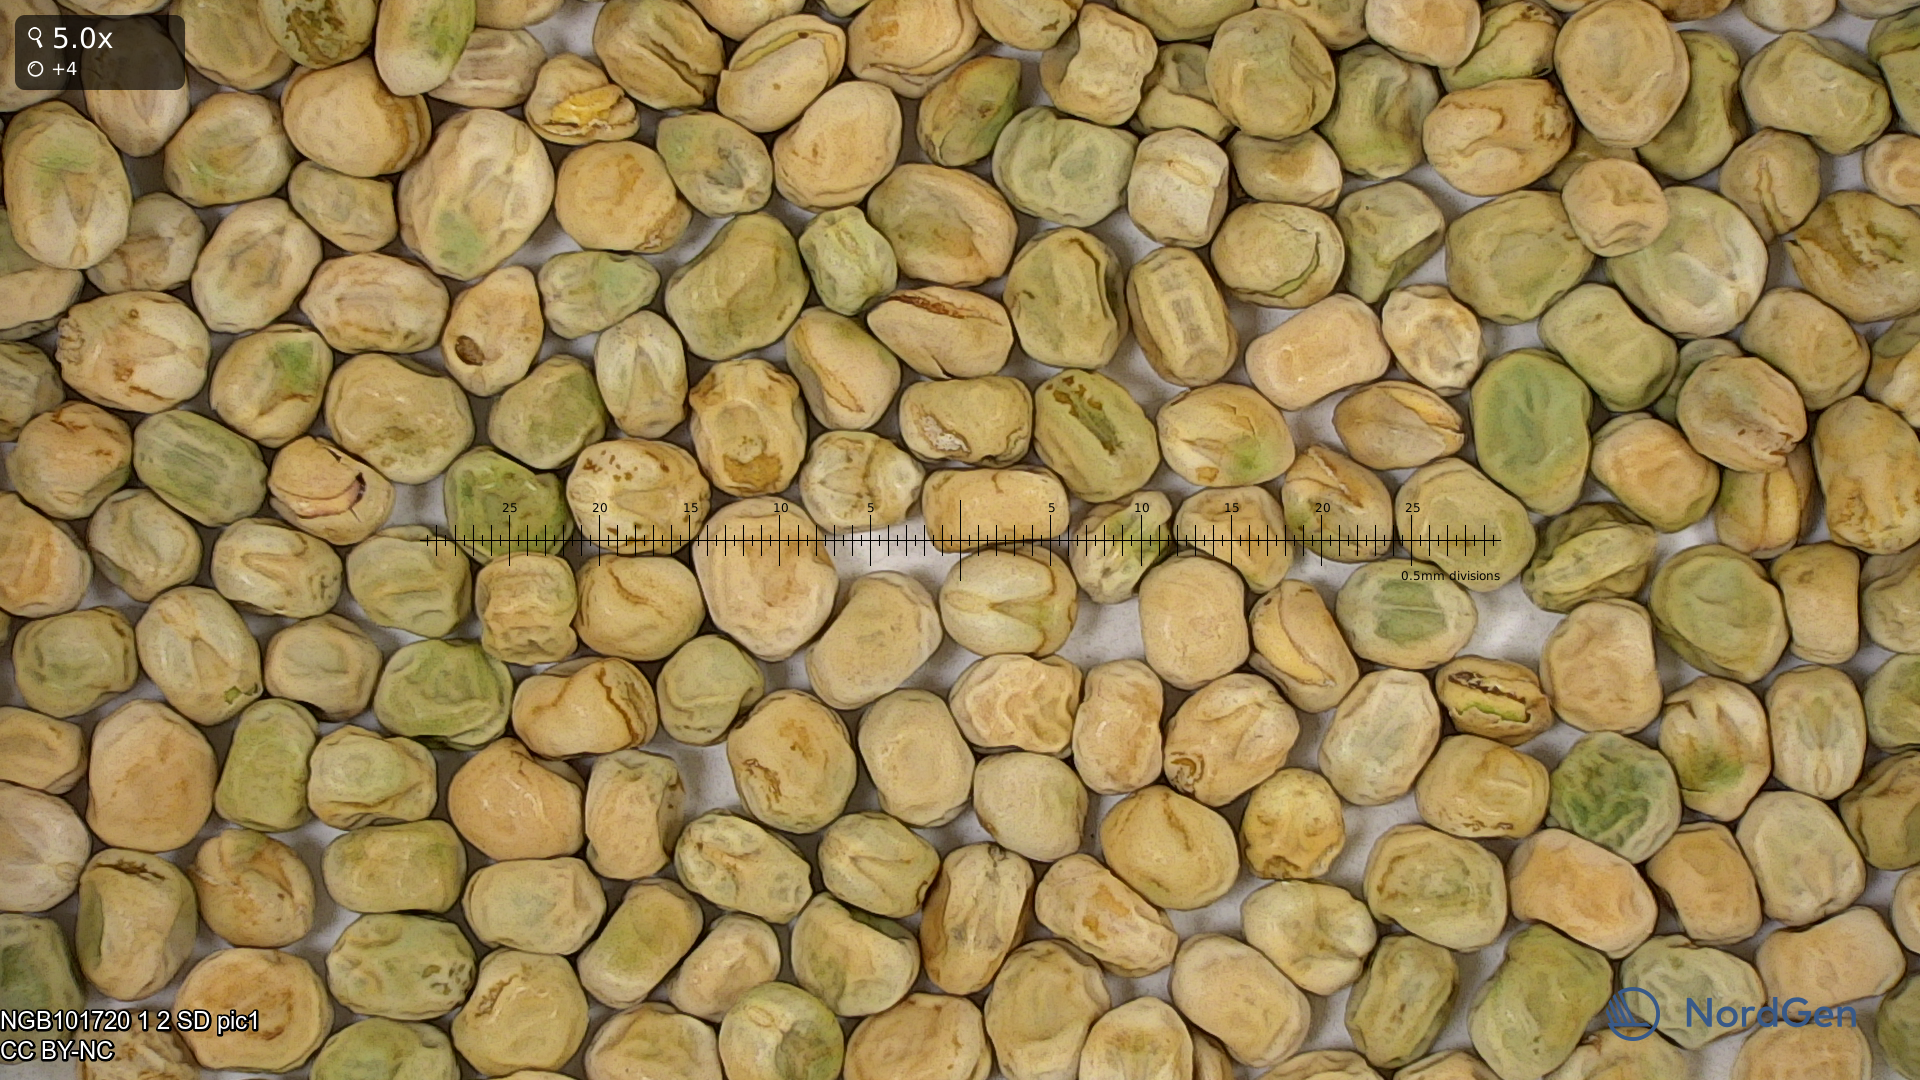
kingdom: Plantae
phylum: Tracheophyta
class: Magnoliopsida
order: Fabales
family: Fabaceae
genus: Lathyrus
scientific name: Lathyrus oleraceus
